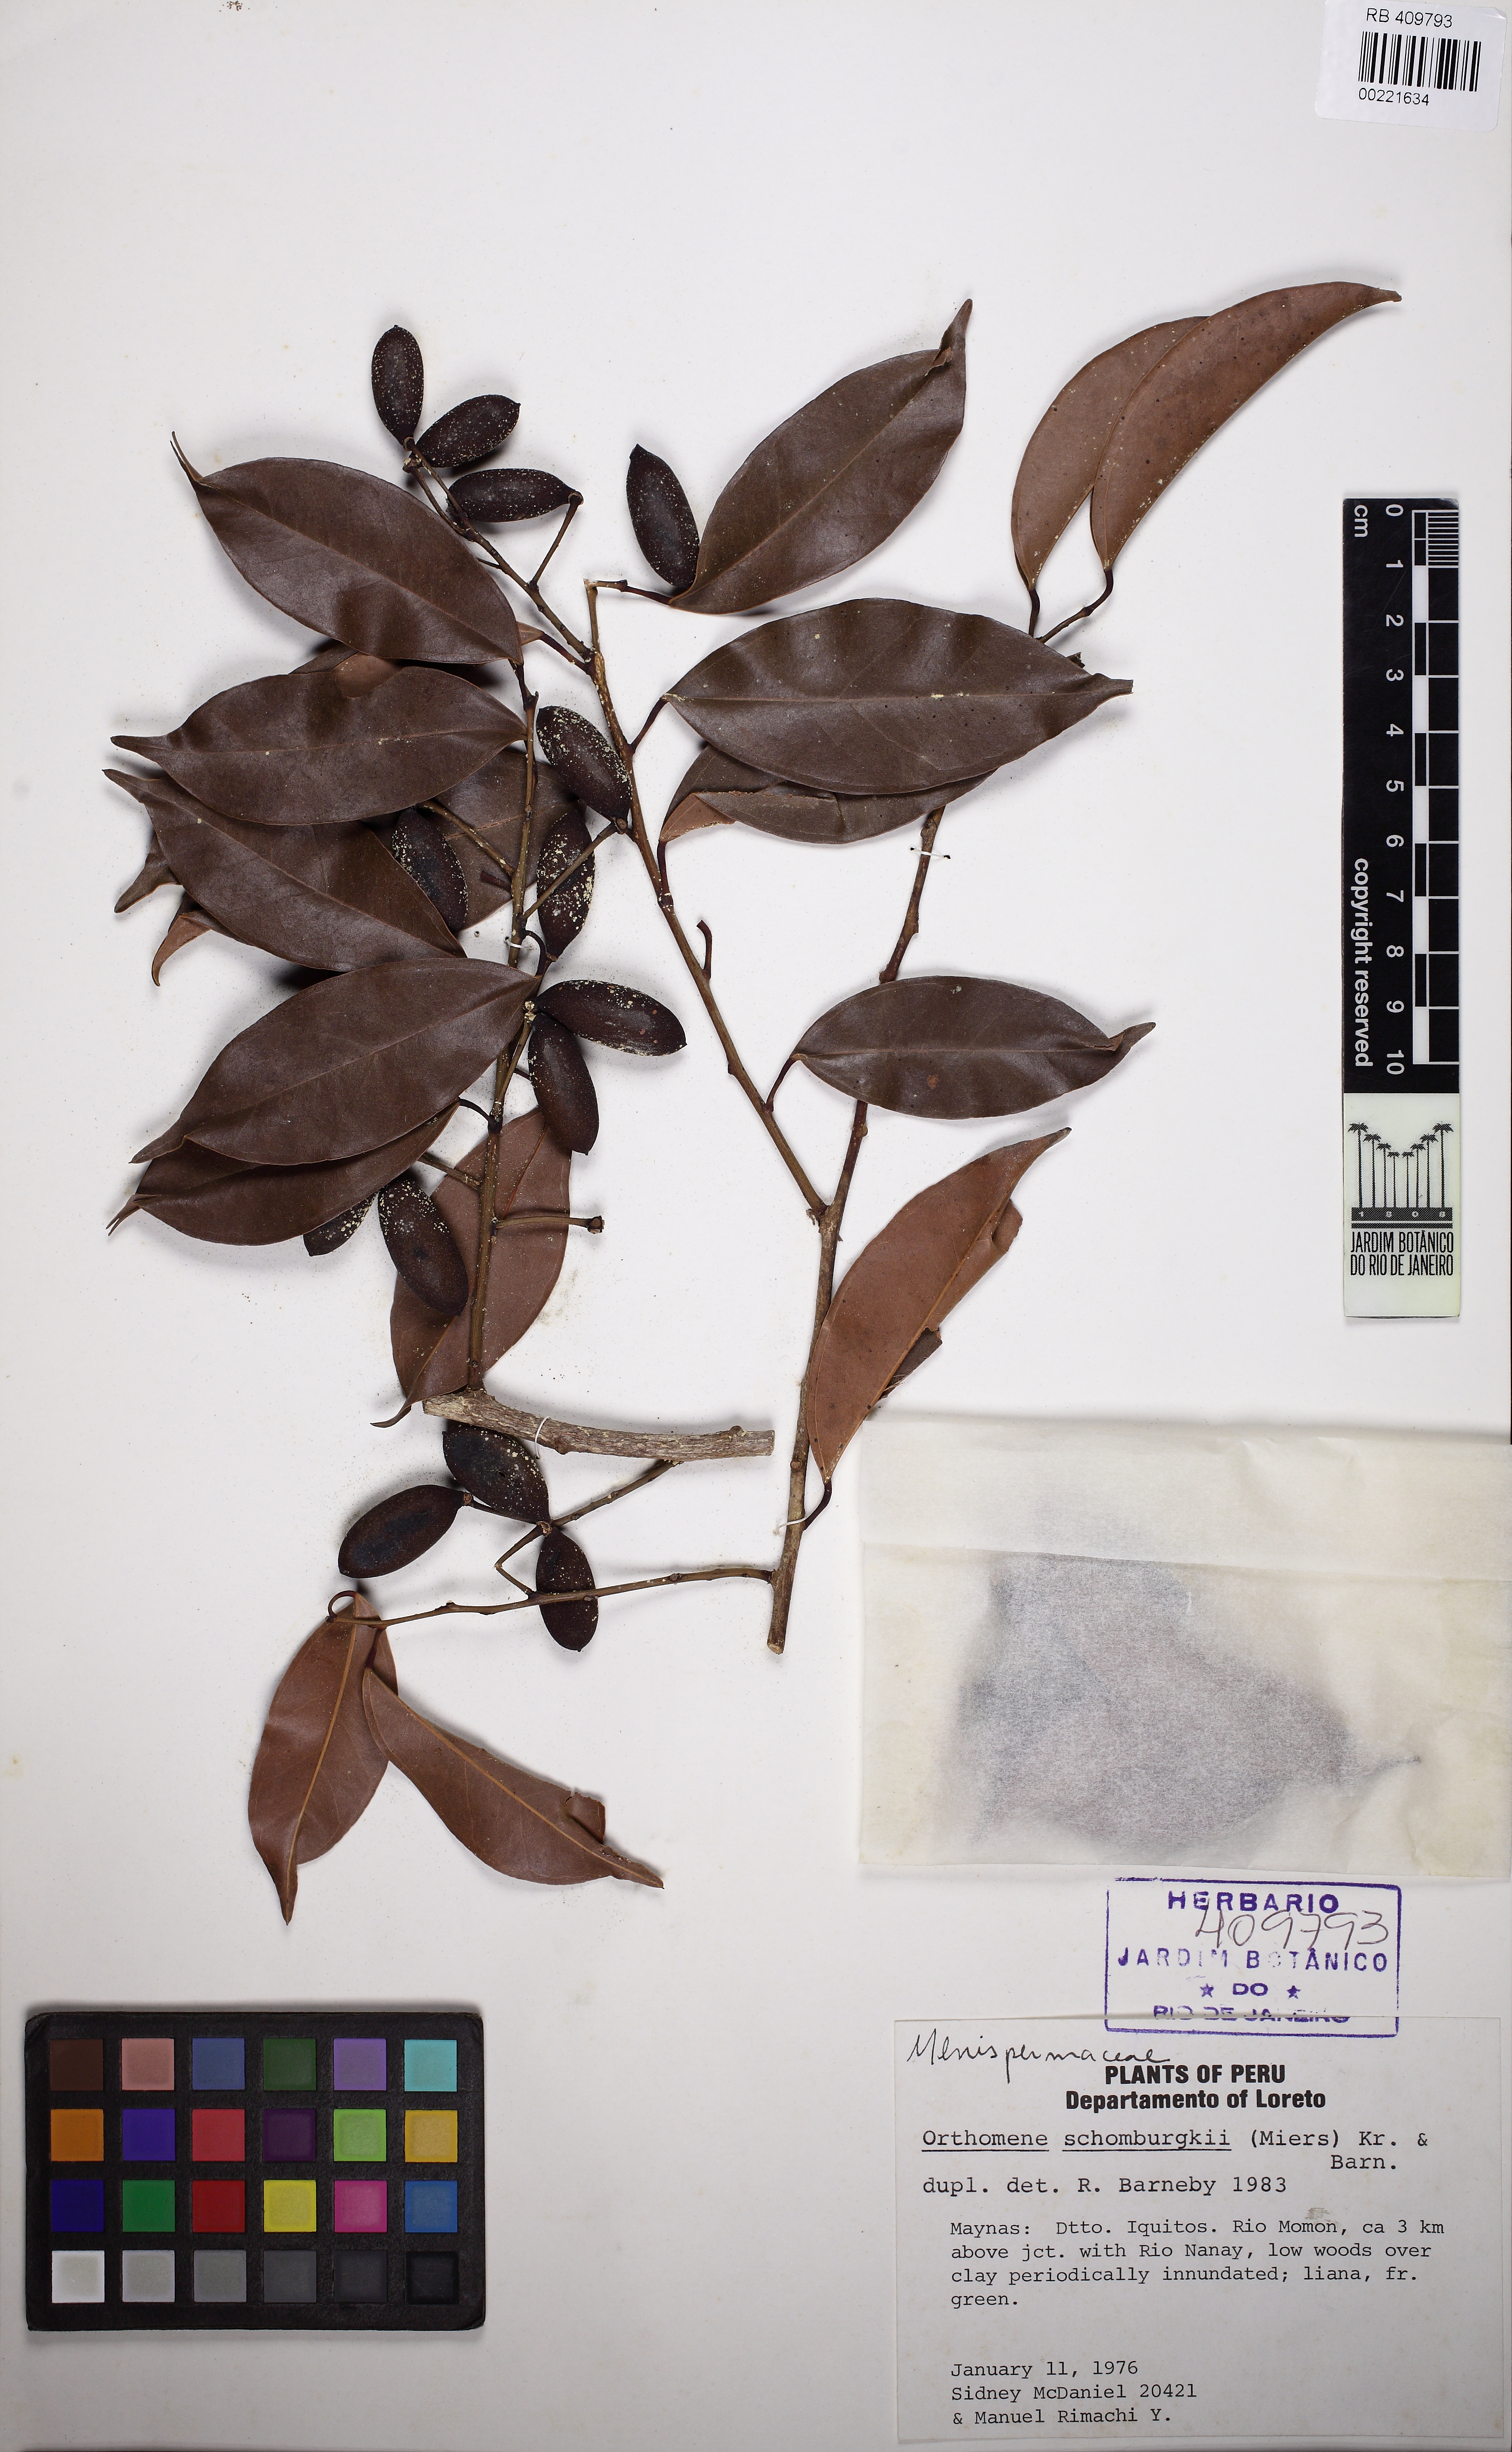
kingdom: Plantae
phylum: Tracheophyta
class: Magnoliopsida
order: Ranunculales
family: Menispermaceae
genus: Orthomene
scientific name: Orthomene schomburgkii
